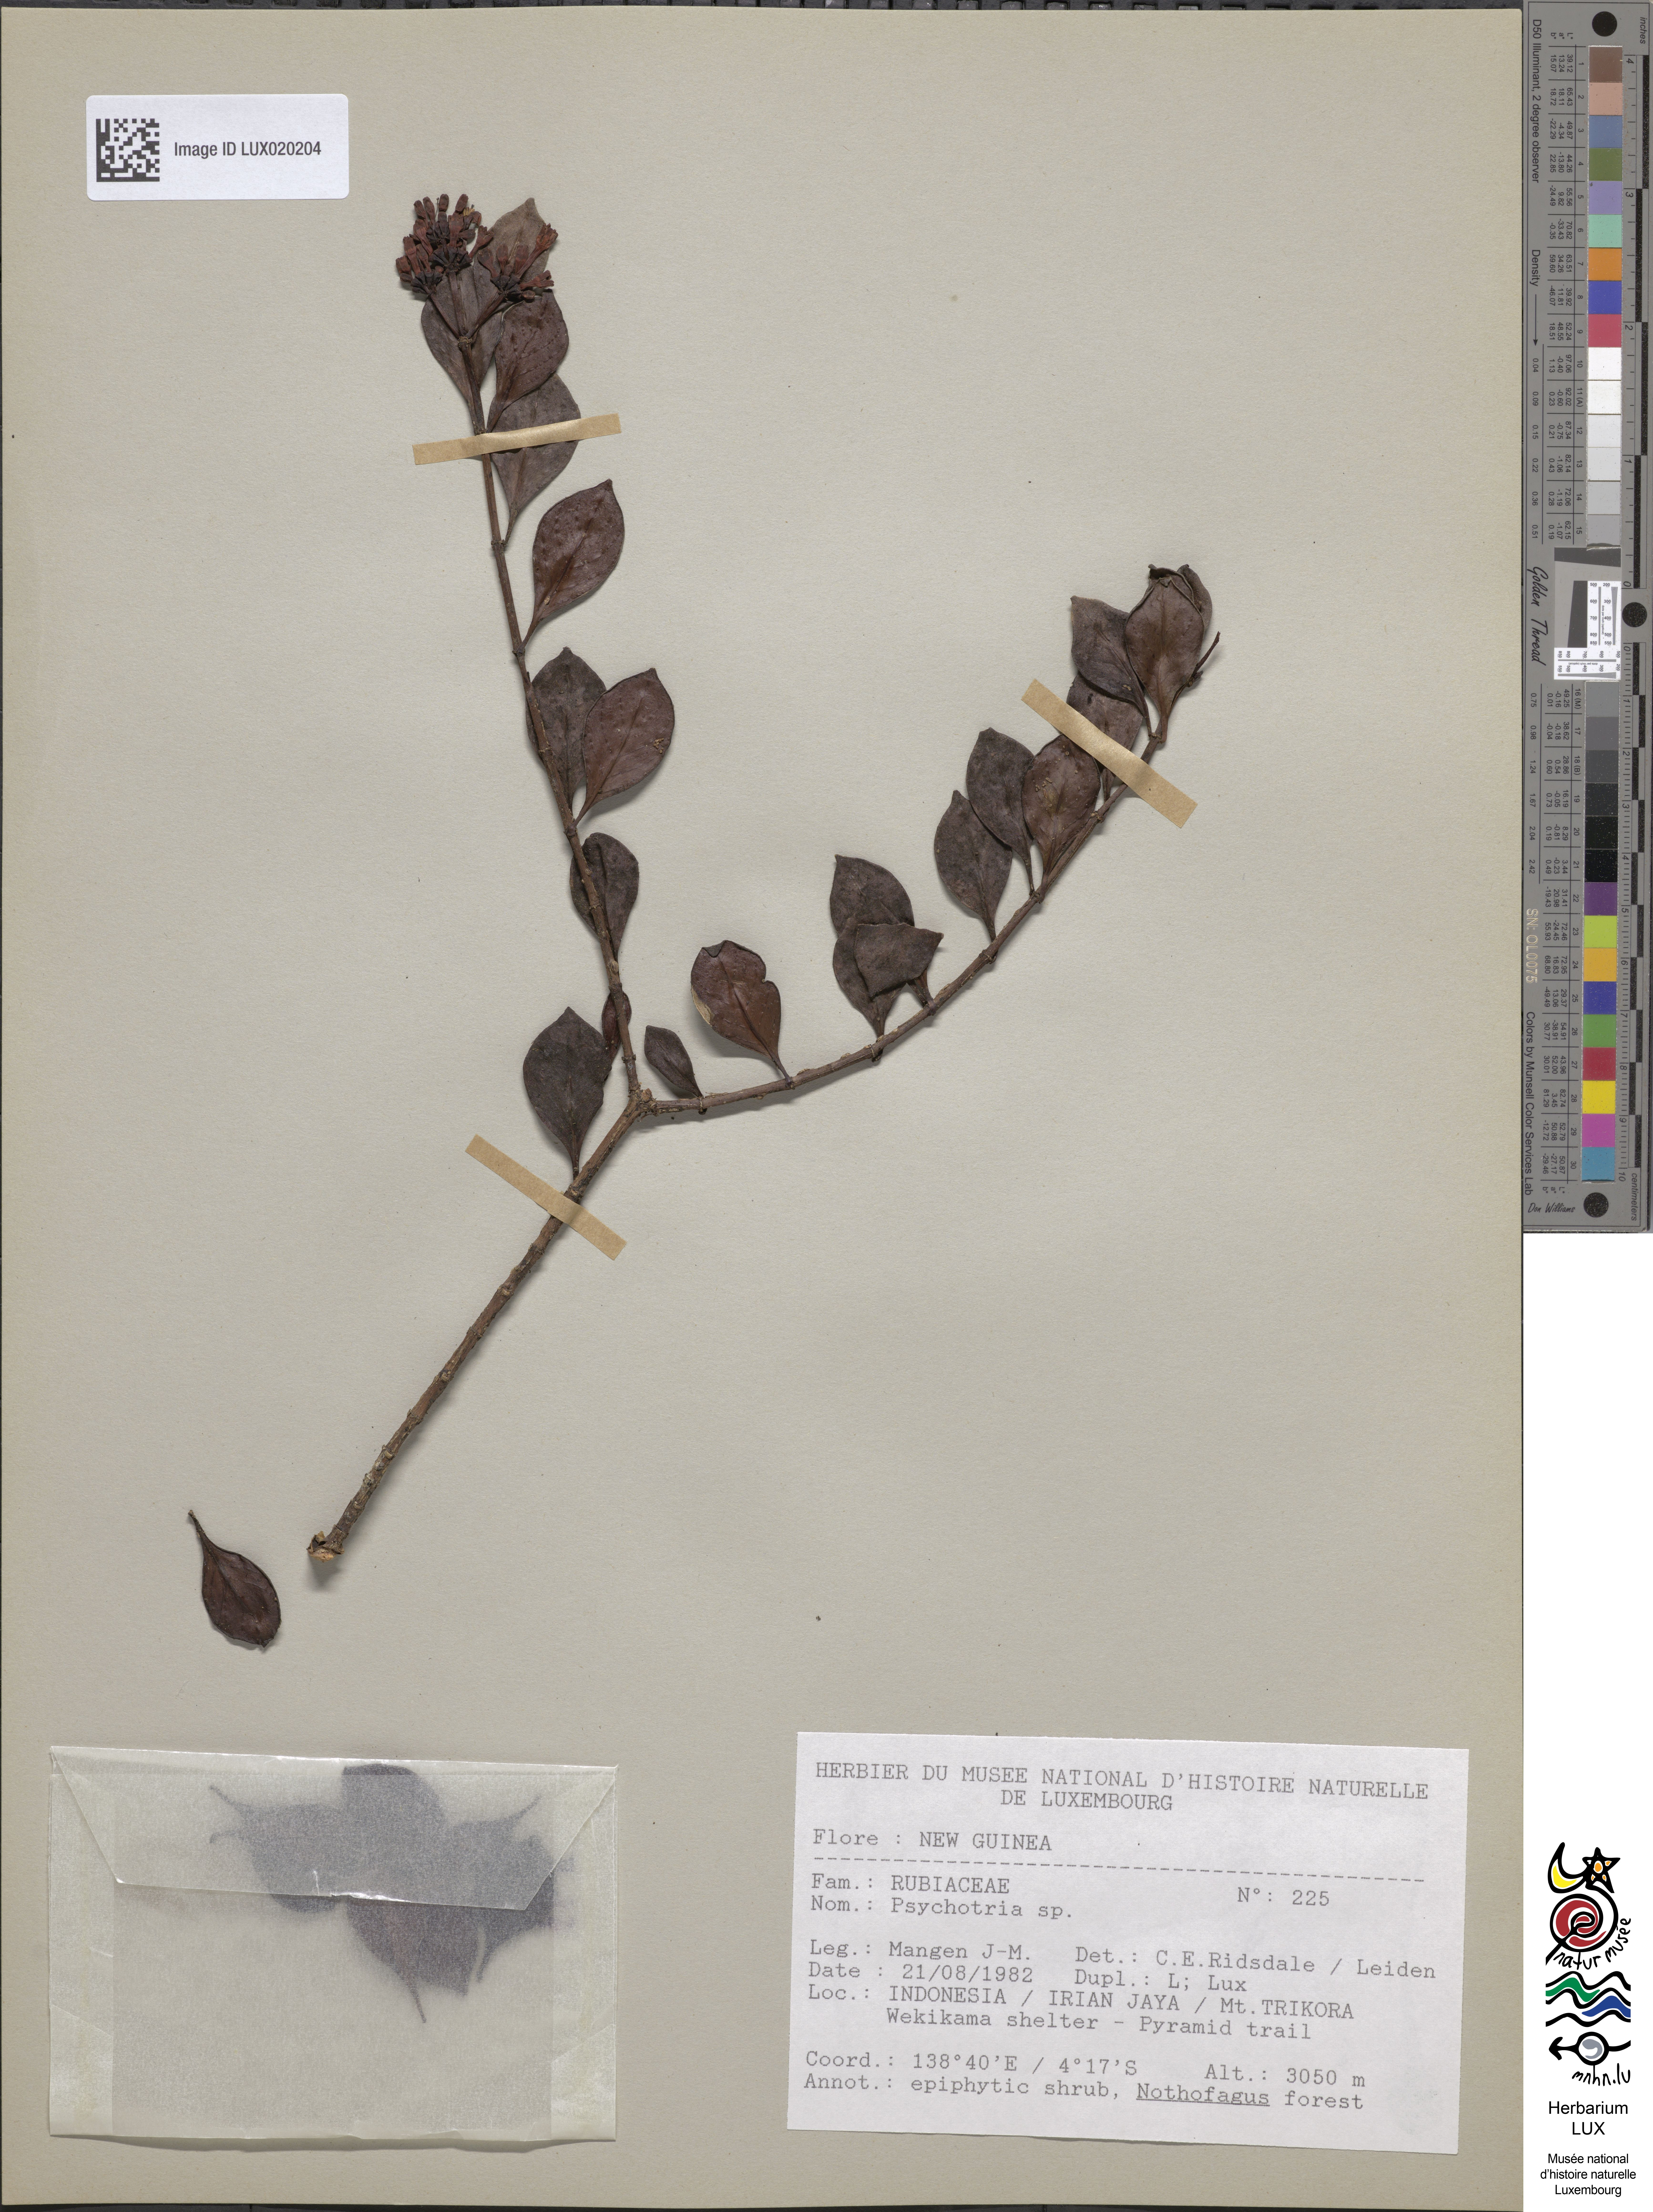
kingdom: Plantae
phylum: Tracheophyta
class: Magnoliopsida
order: Gentianales
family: Rubiaceae
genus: Psychotria
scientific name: Psychotria
